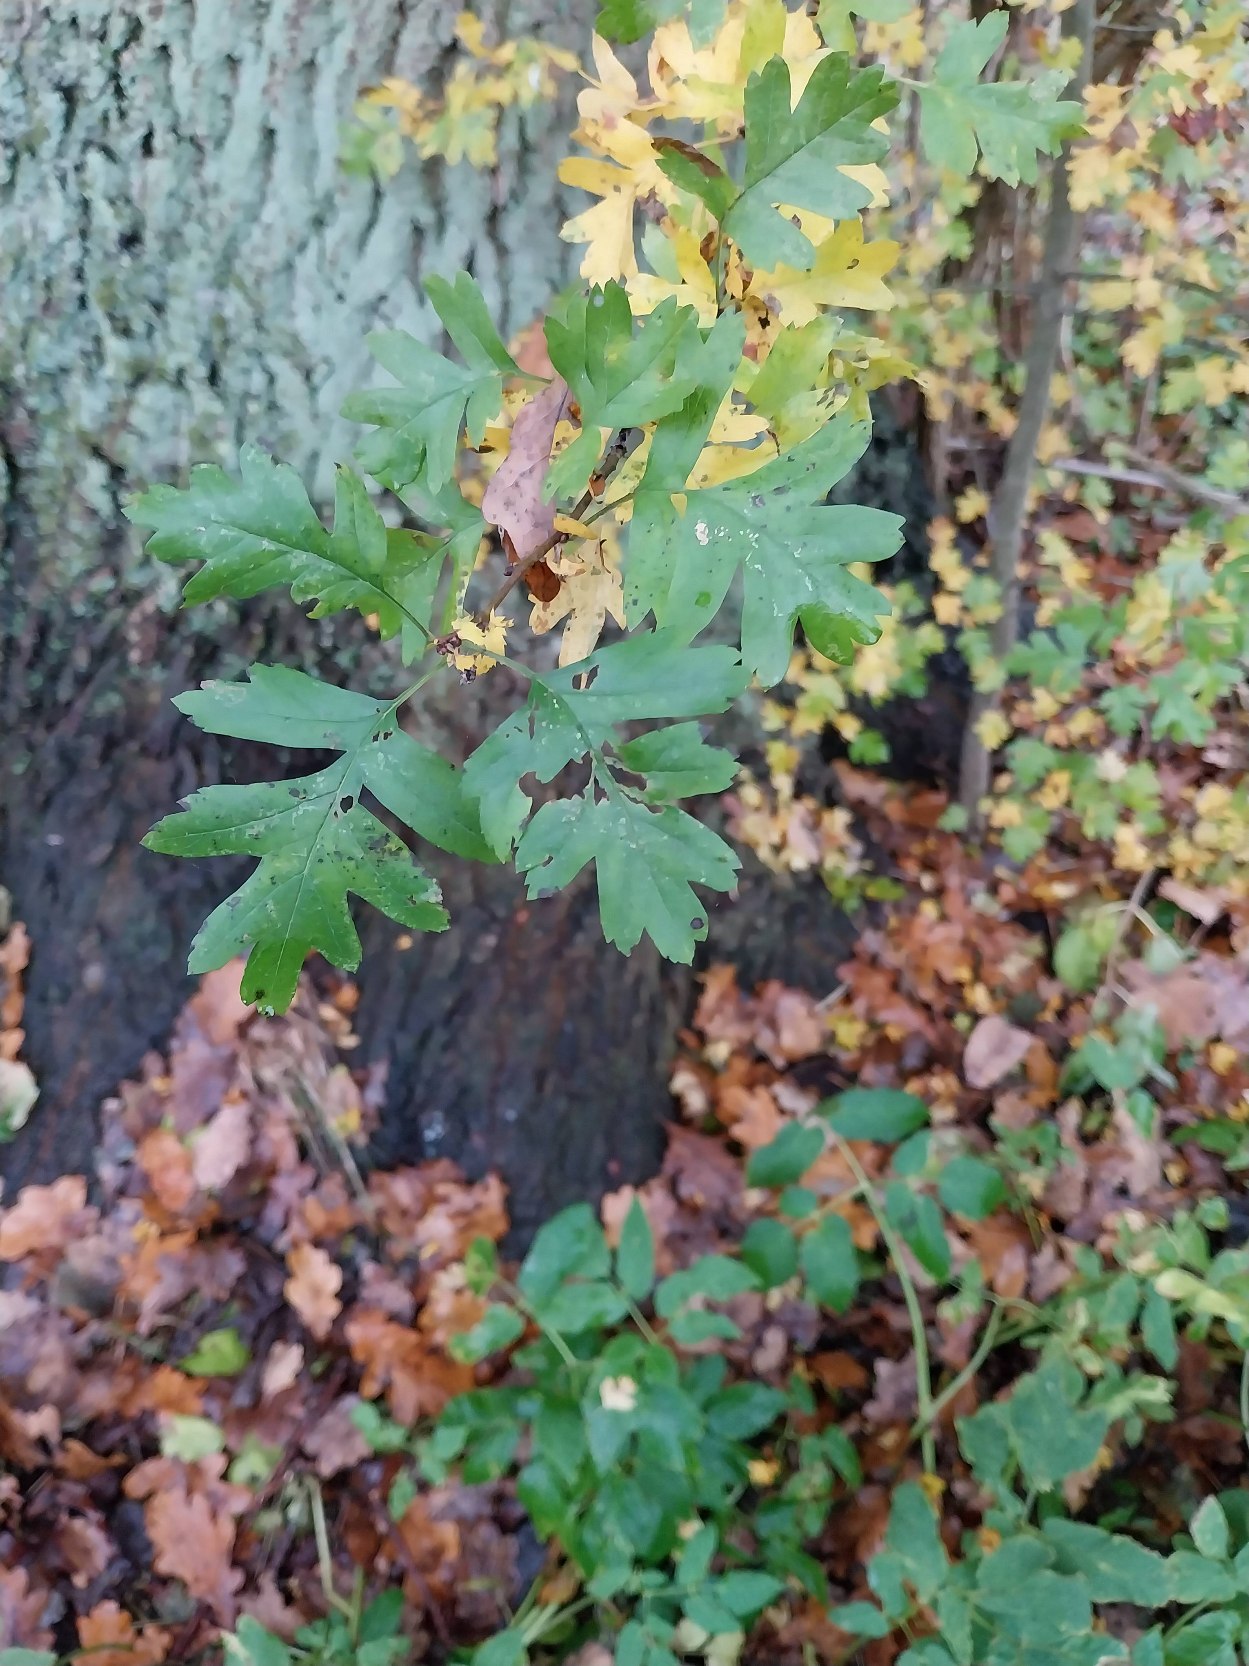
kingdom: Plantae
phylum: Tracheophyta
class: Magnoliopsida
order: Rosales
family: Rosaceae
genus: Crataegus
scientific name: Crataegus monogyna
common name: Engriflet hvidtjørn
